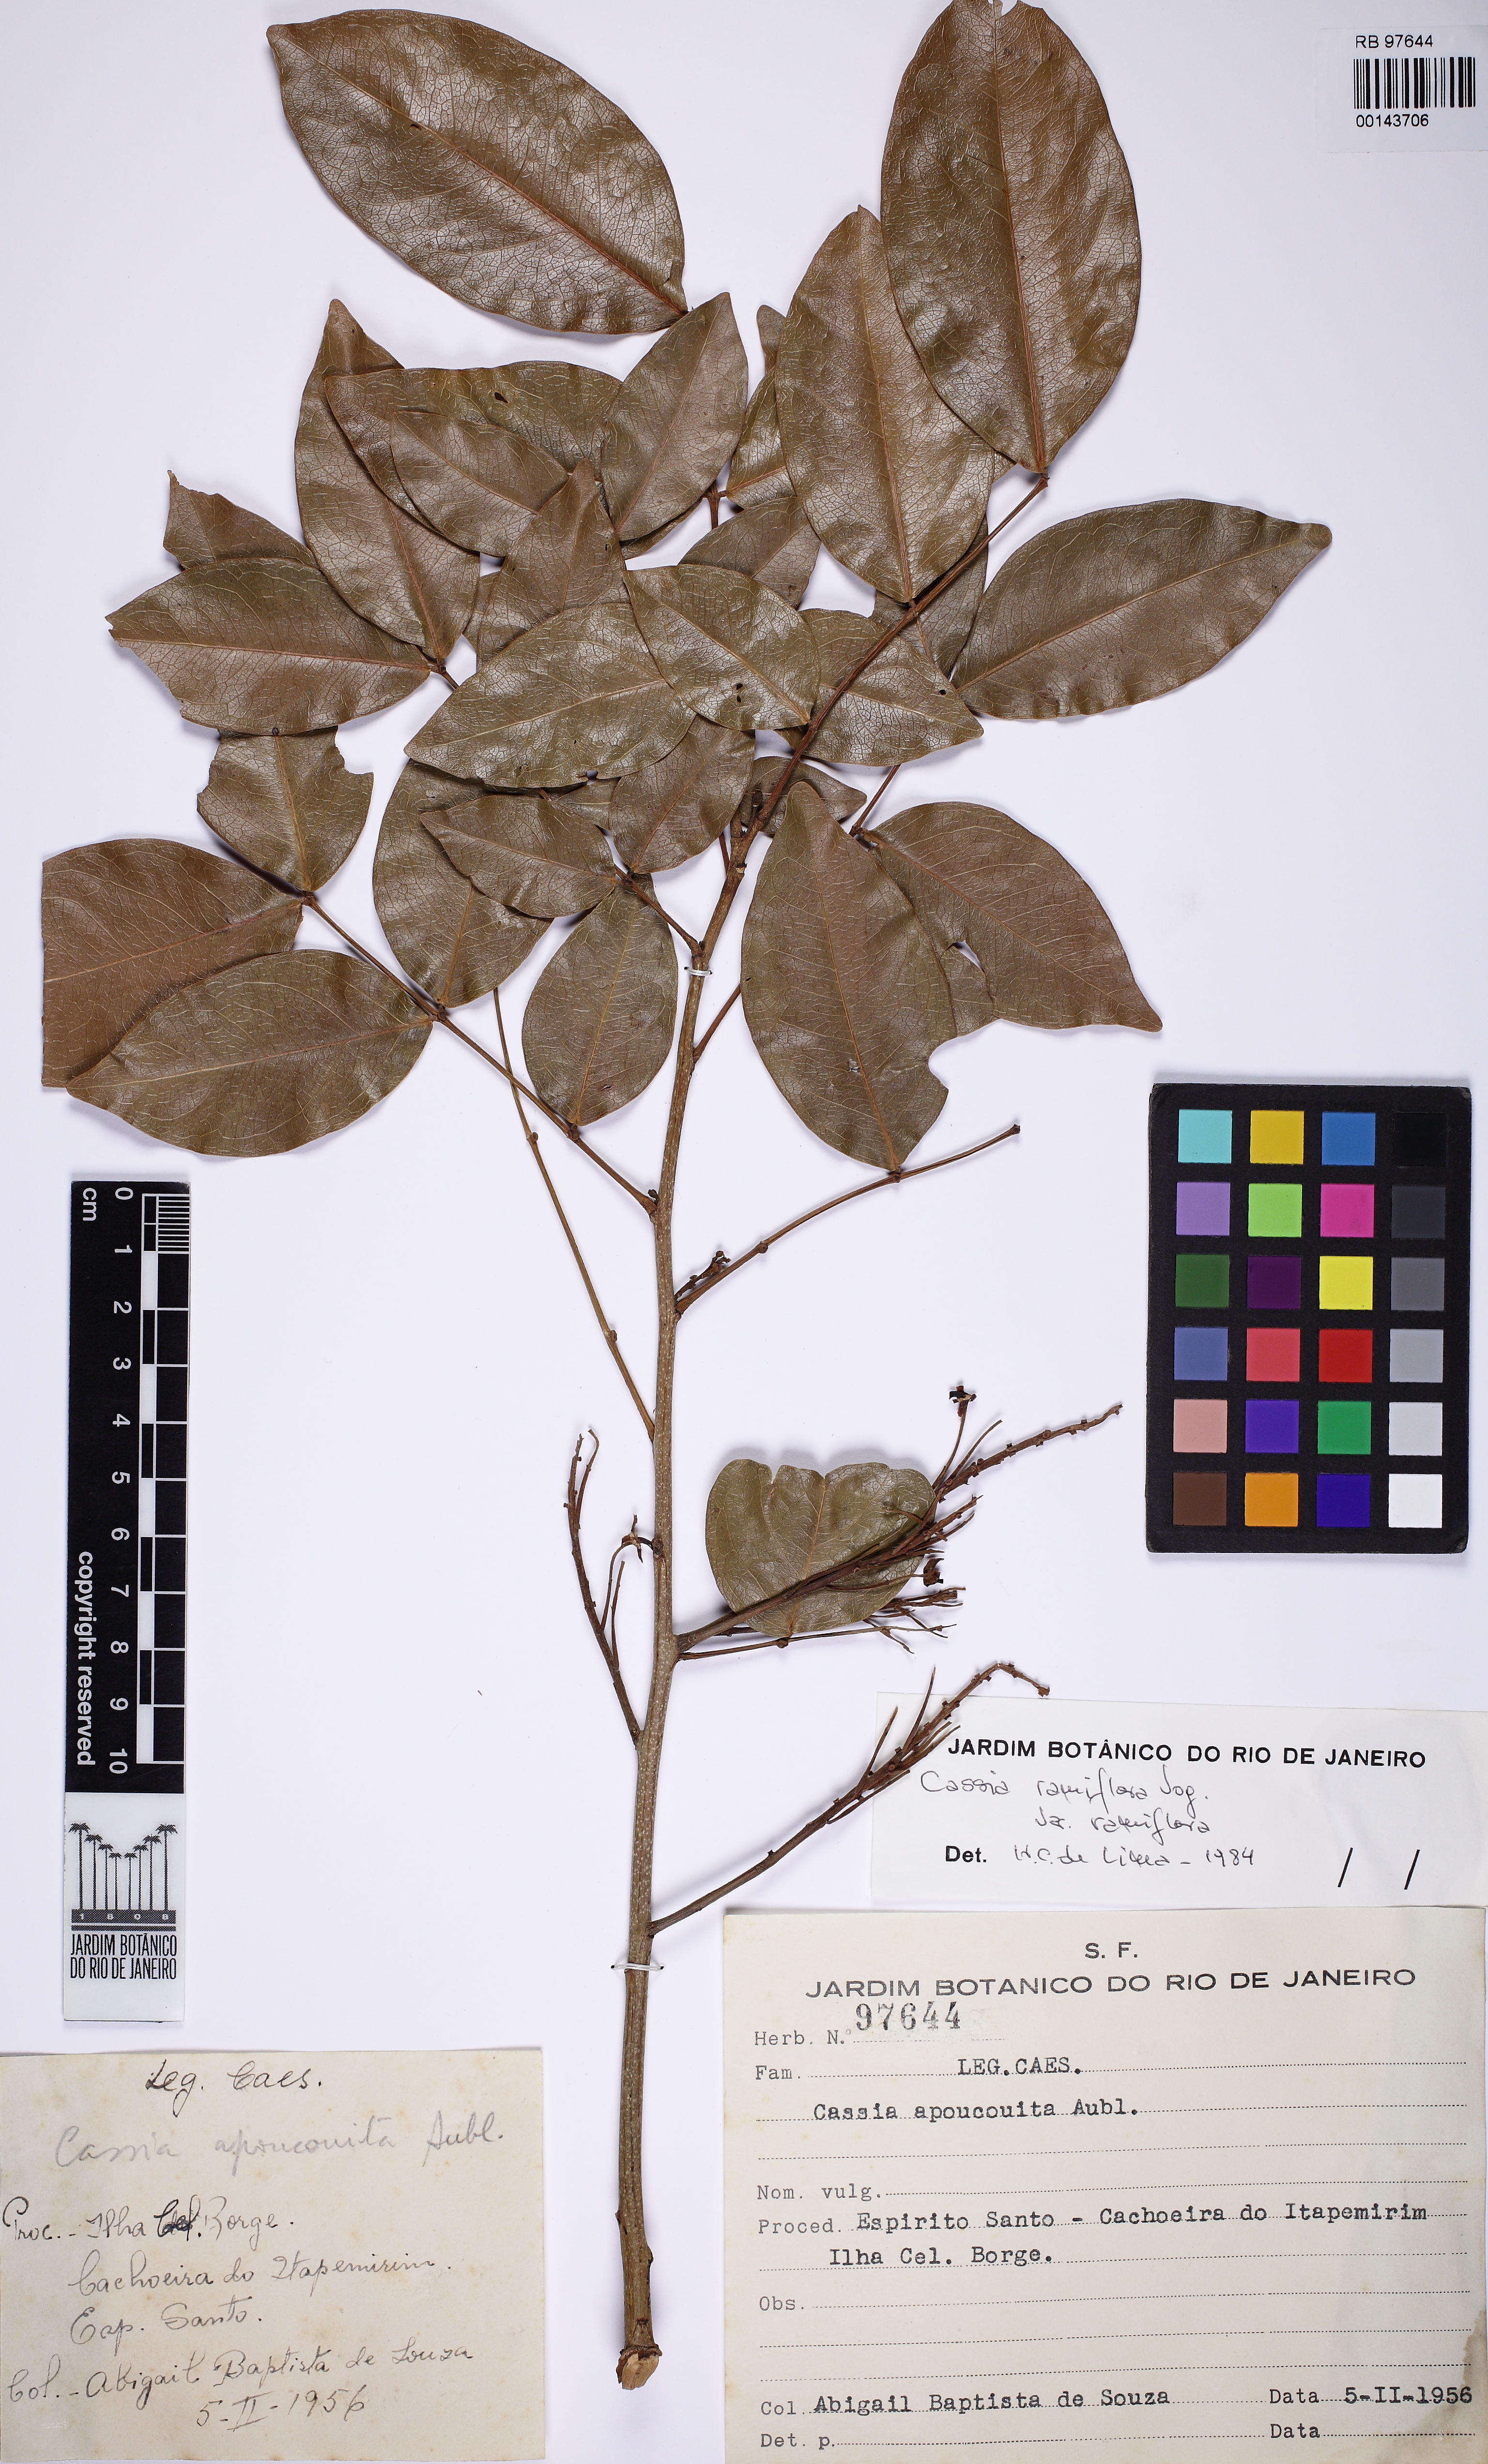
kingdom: Plantae
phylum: Tracheophyta
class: Magnoliopsida
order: Fabales
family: Fabaceae
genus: Chamaecrista
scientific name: Chamaecrista ensiformis
